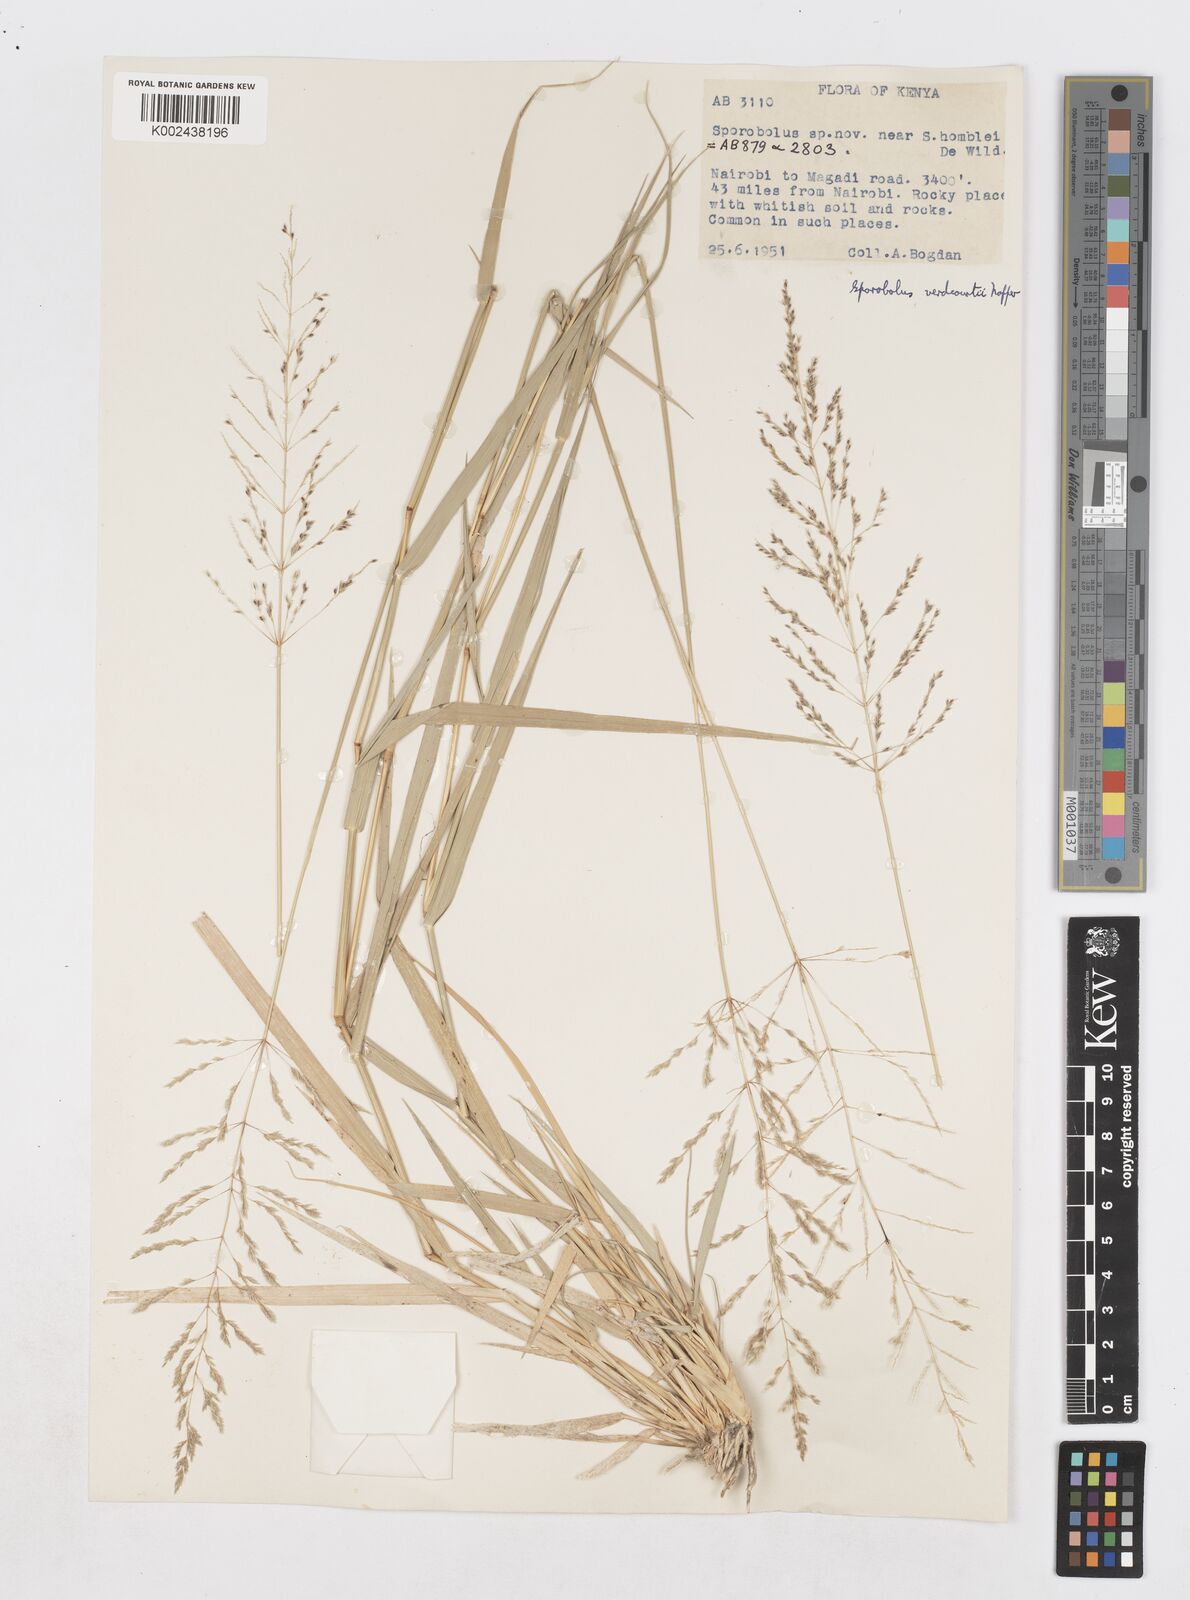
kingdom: Plantae
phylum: Tracheophyta
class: Liliopsida
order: Poales
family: Poaceae
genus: Sporobolus
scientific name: Sporobolus ioclados
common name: Pan dropseed
